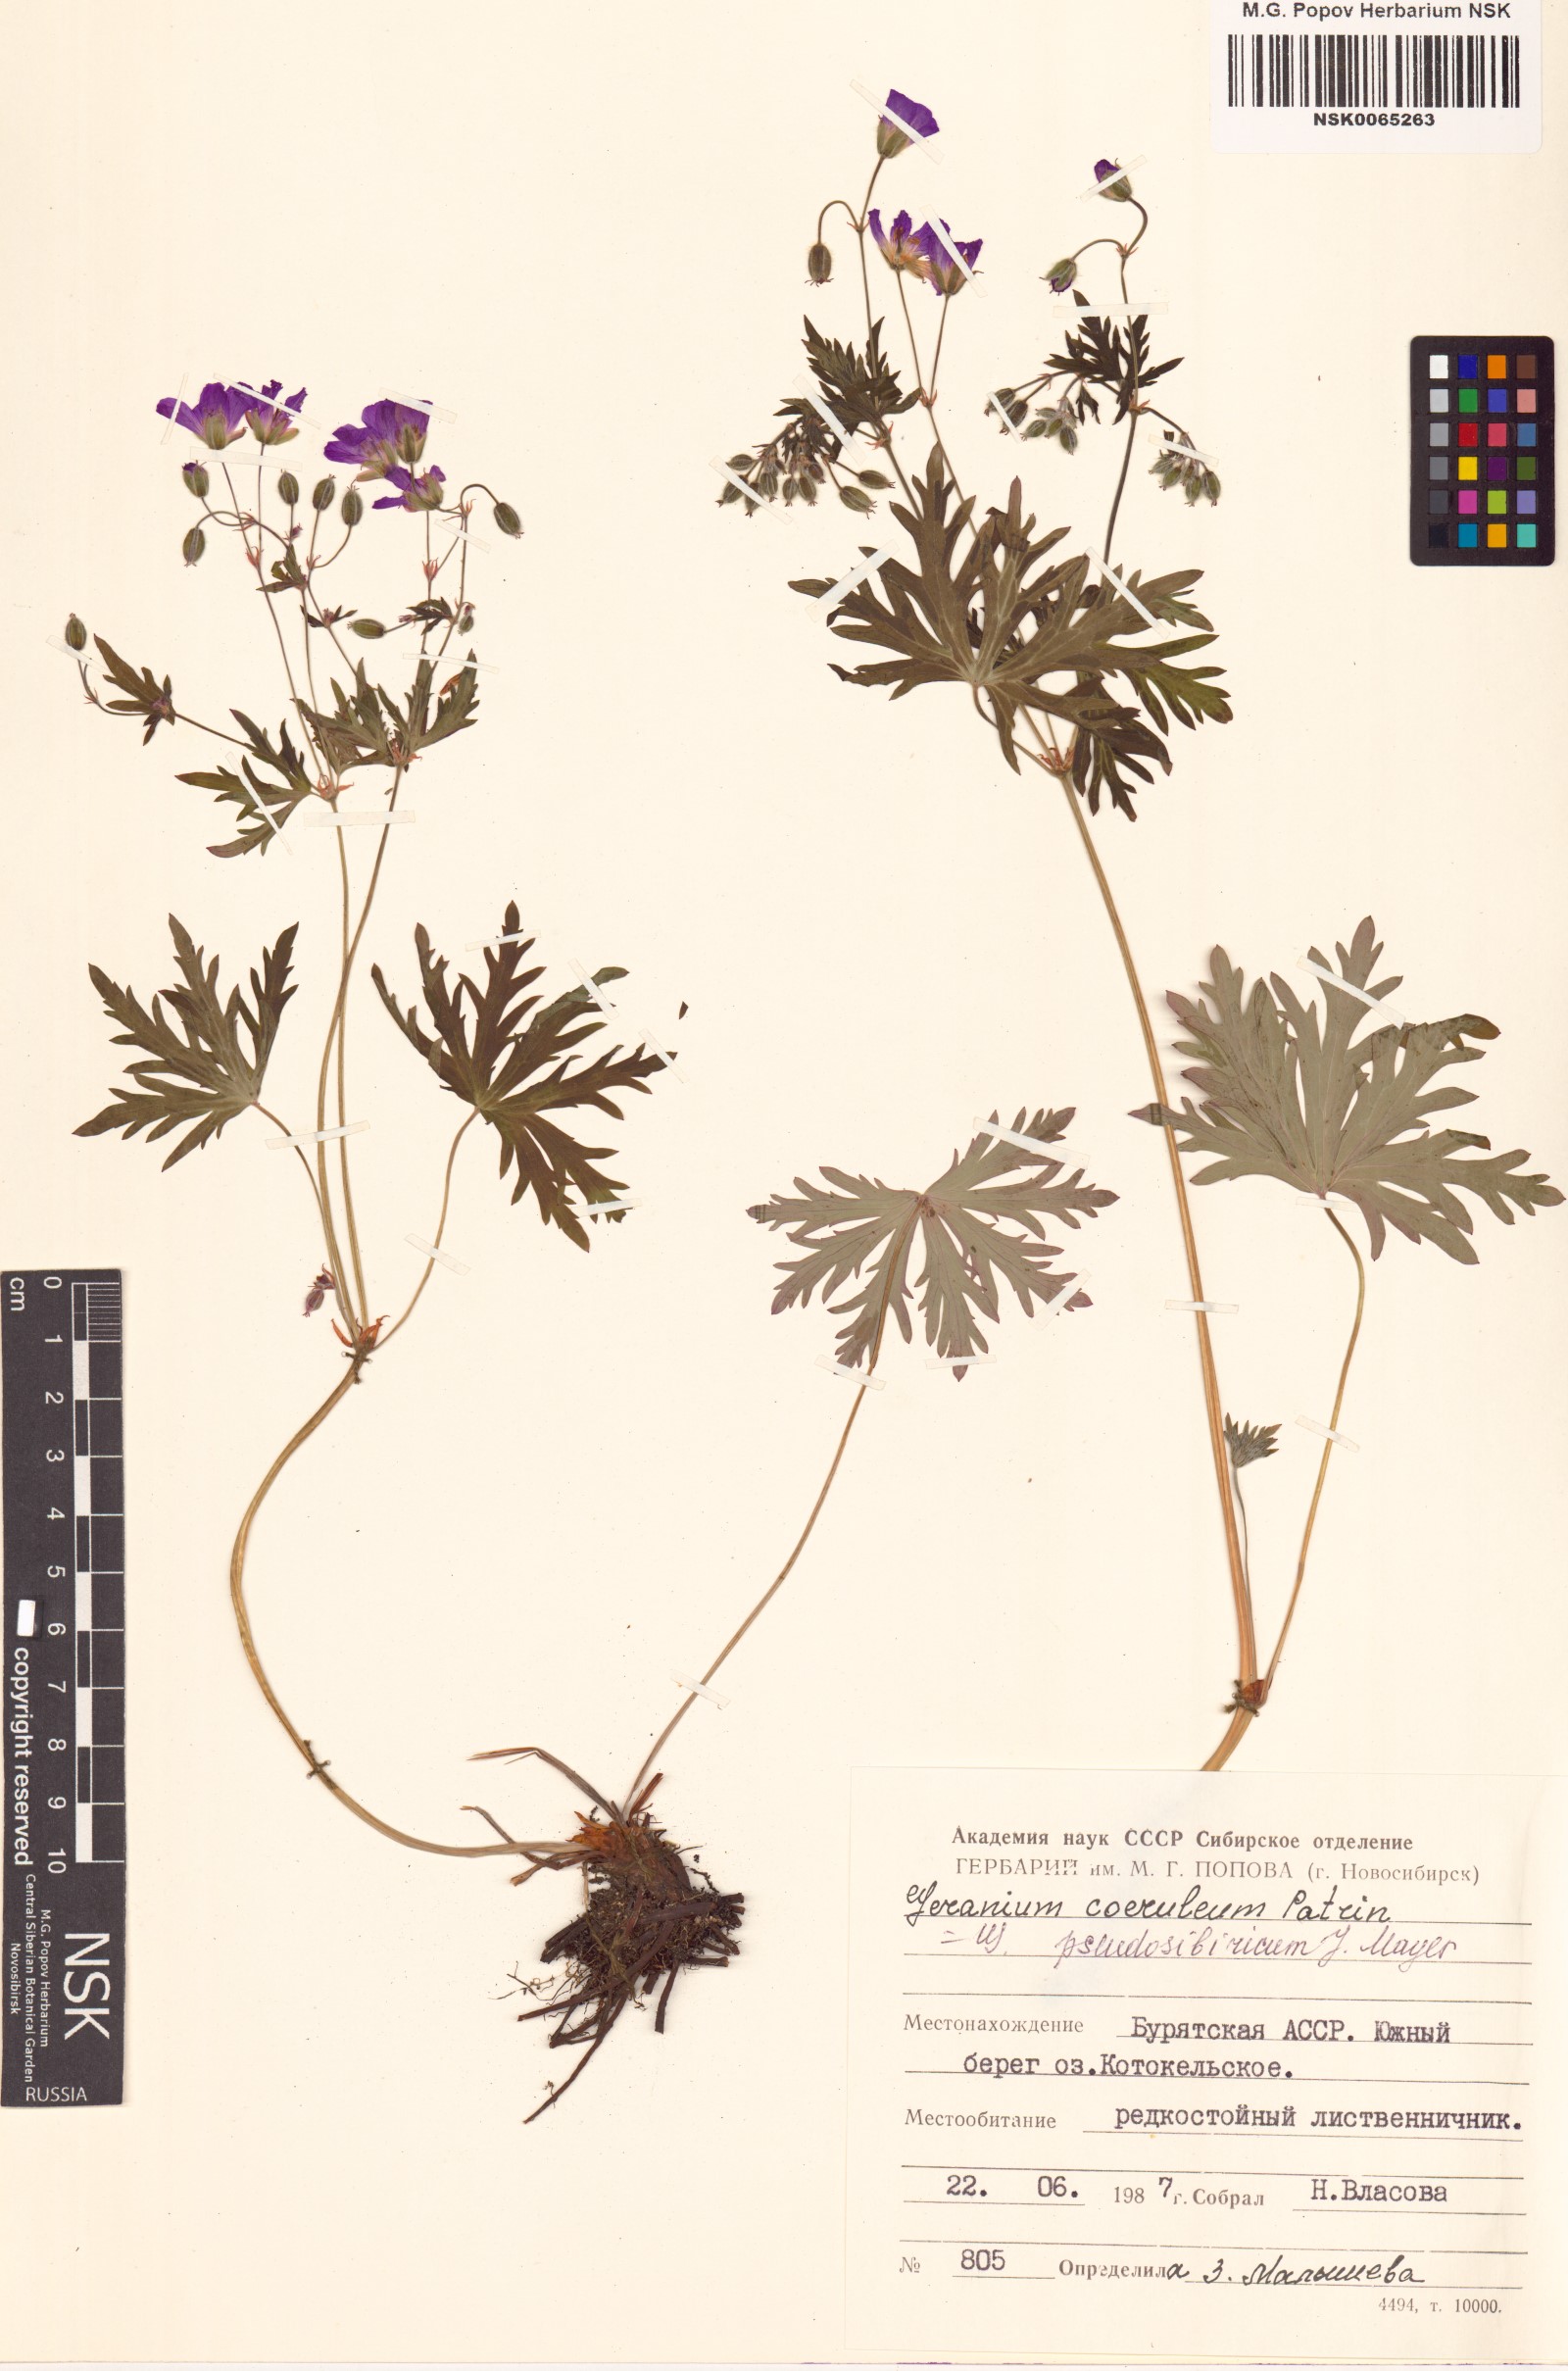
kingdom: Plantae
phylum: Tracheophyta
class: Magnoliopsida
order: Geraniales
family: Geraniaceae
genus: Geranium
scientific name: Geranium pseudosibiricum
